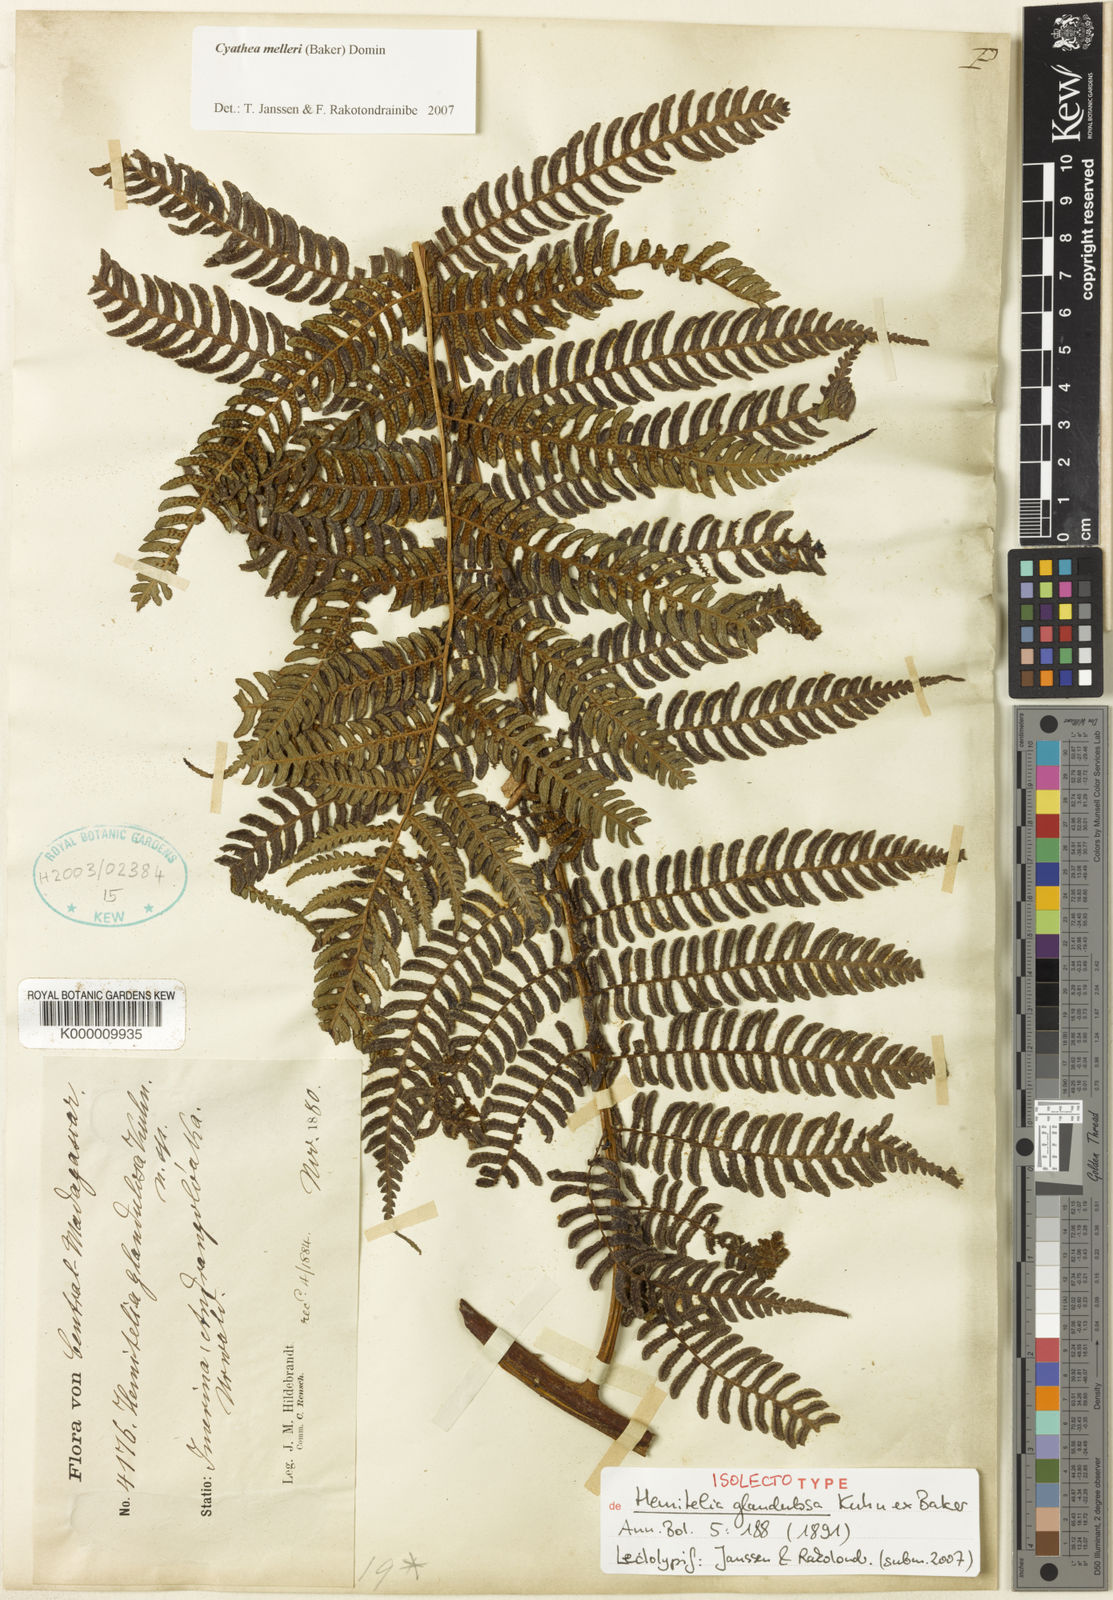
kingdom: Plantae
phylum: Tracheophyta
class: Polypodiopsida
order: Cyatheales
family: Cyatheaceae
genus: Alsophila
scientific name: Alsophila melleri
